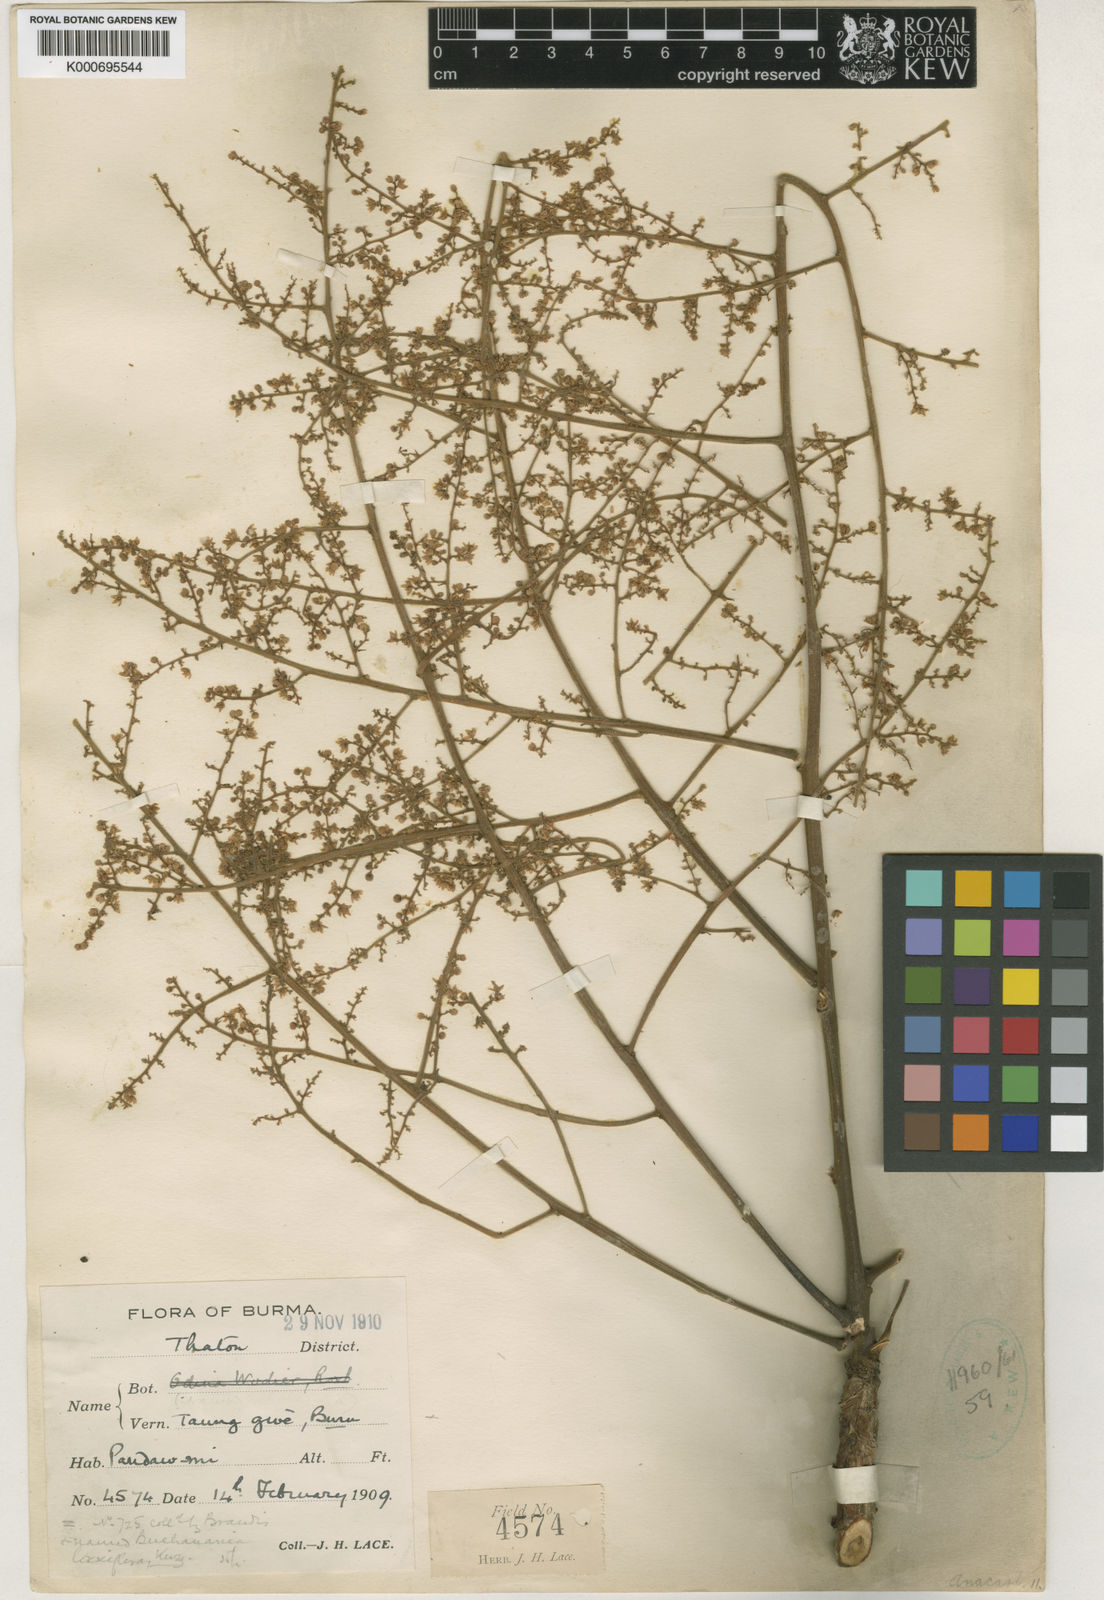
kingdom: Plantae
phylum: Tracheophyta
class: Magnoliopsida
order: Sapindales
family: Anacardiaceae
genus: Allospondias
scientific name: Allospondias laxiflora
